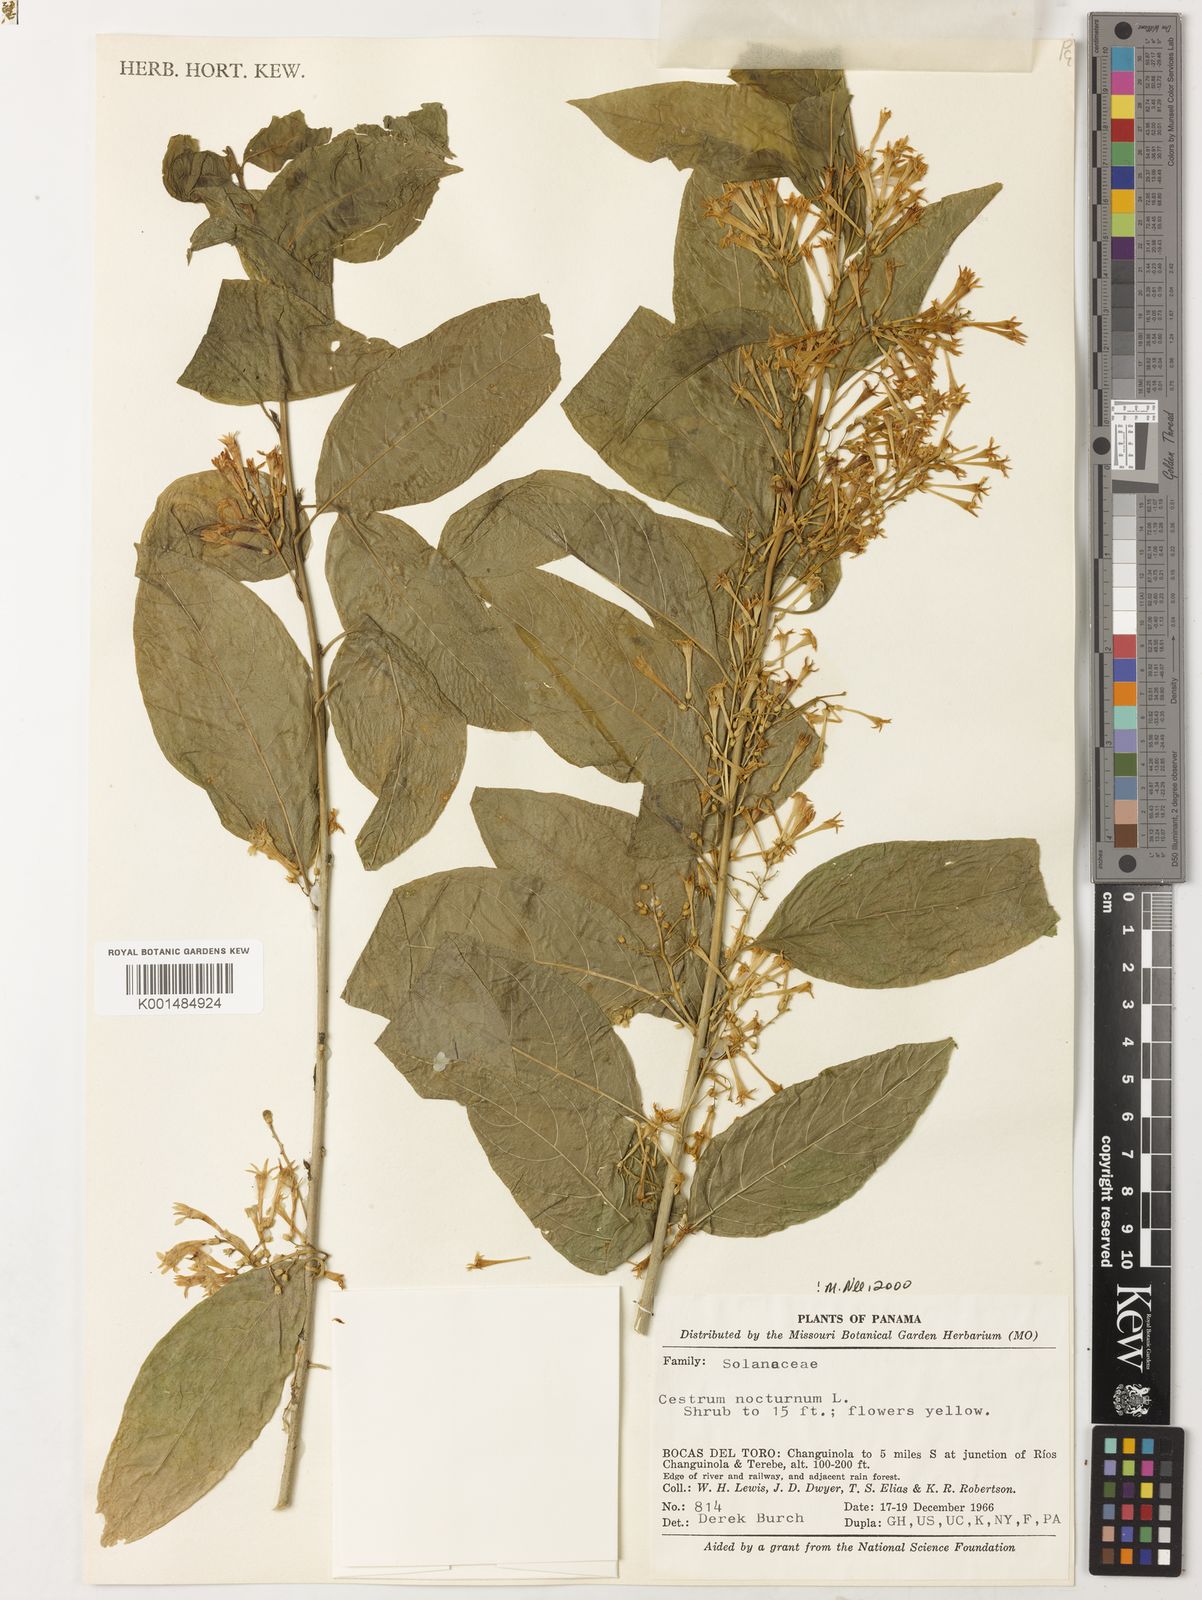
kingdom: Plantae
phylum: Tracheophyta
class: Magnoliopsida
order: Solanales
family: Solanaceae
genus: Cestrum
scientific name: Cestrum nocturnum
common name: Night jessamine
